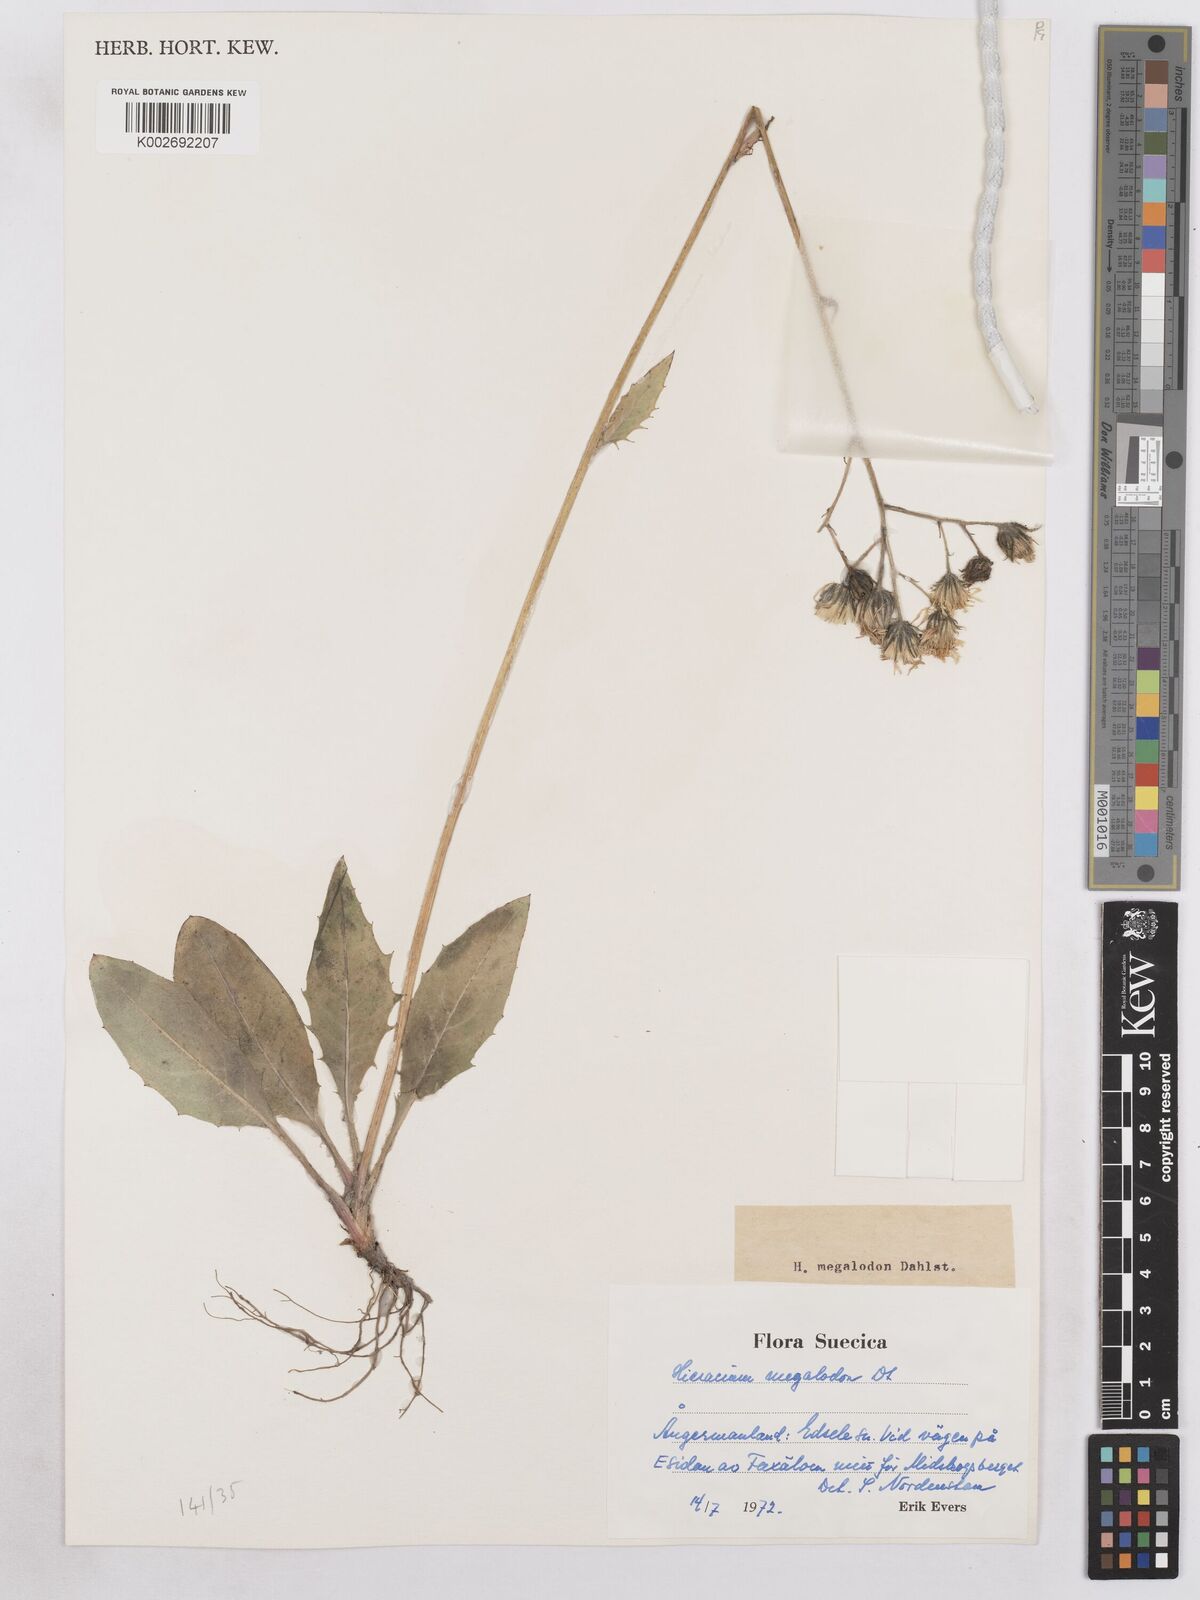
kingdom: Plantae
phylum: Tracheophyta
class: Magnoliopsida
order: Asterales
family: Asteraceae
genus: Hieracium
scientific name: Hieracium diaphanoides
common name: Fine-bracted hawkweed
